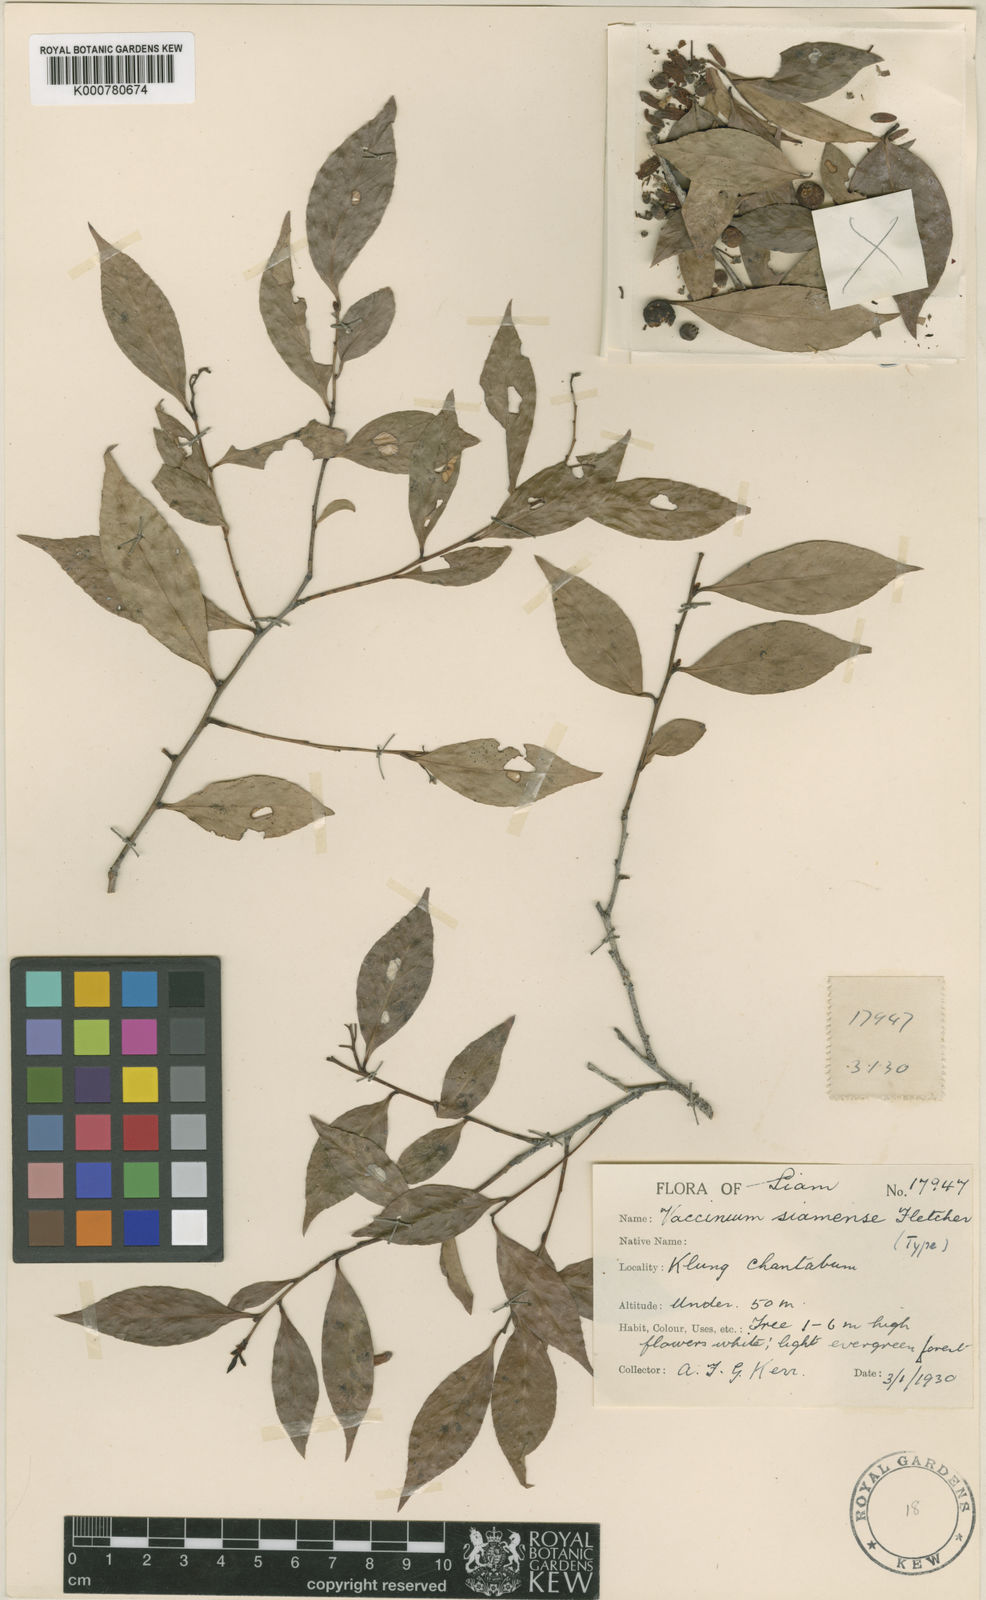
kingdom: Plantae
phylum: Tracheophyta
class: Magnoliopsida
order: Ericales
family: Ericaceae
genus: Vaccinium
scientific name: Vaccinium bracteatum
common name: Sea bilberry
